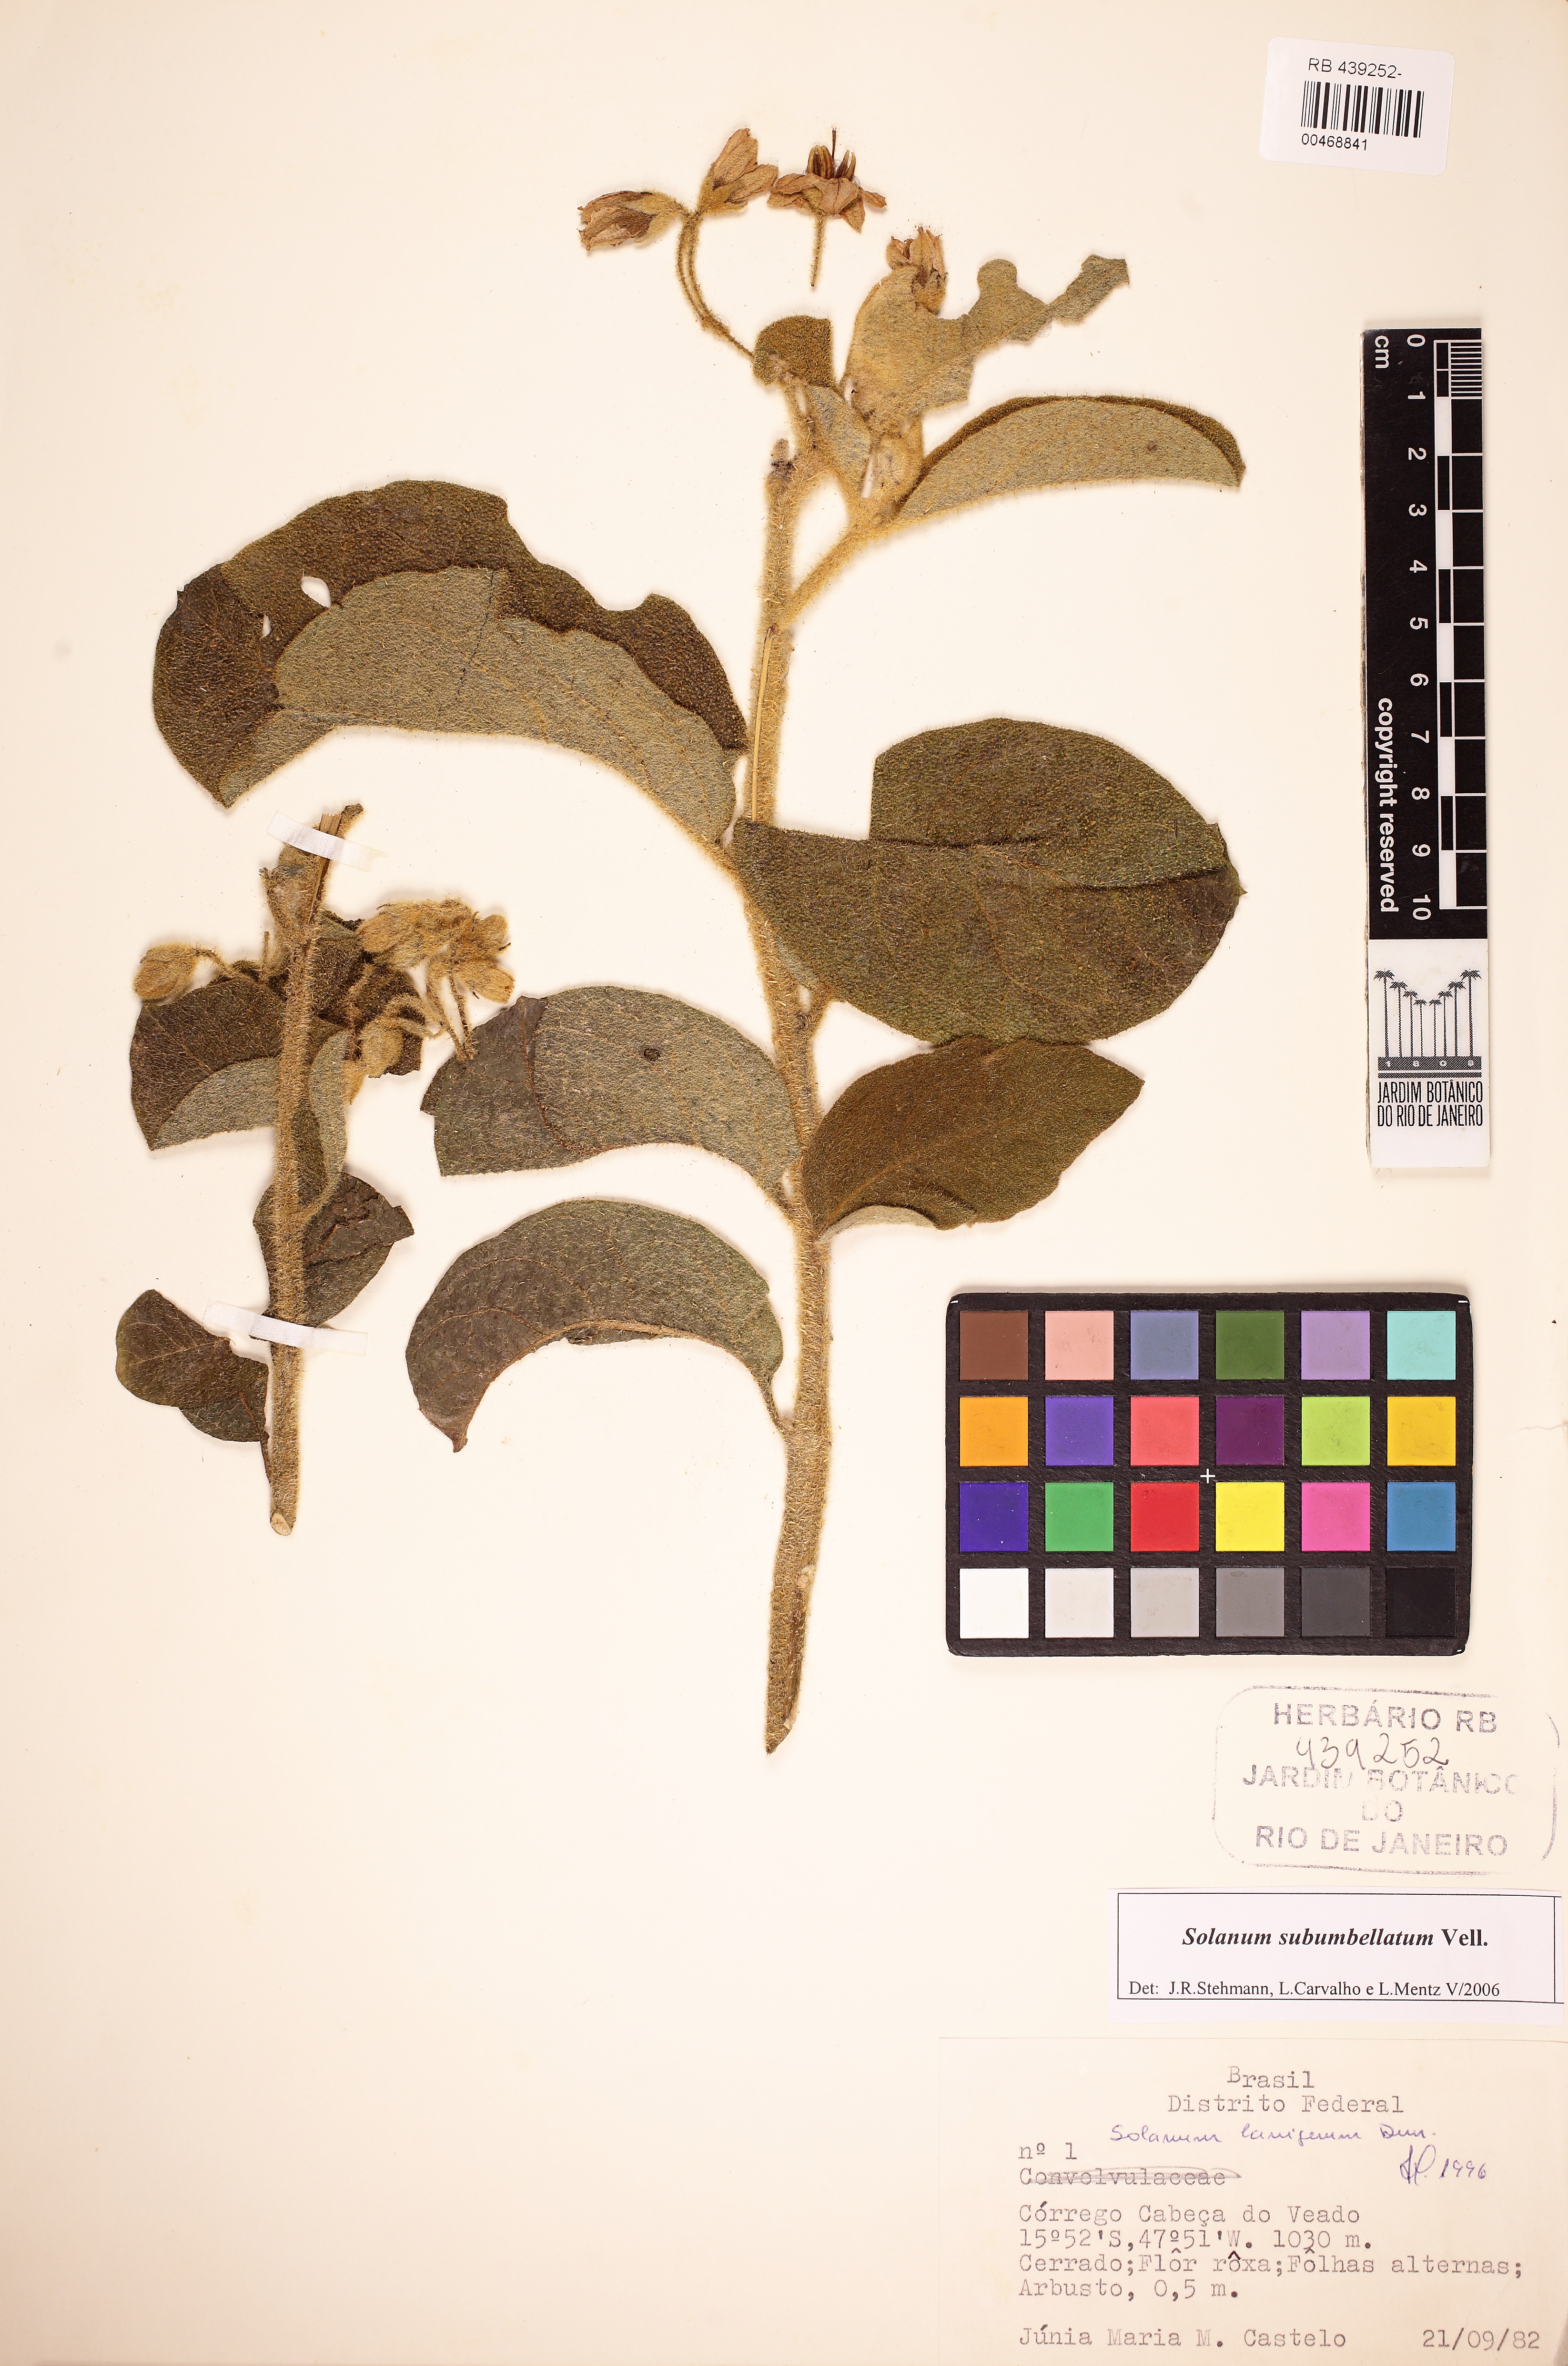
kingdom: Plantae
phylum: Tracheophyta
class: Magnoliopsida
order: Solanales
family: Solanaceae
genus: Solanum
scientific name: Solanum subumbellatum
